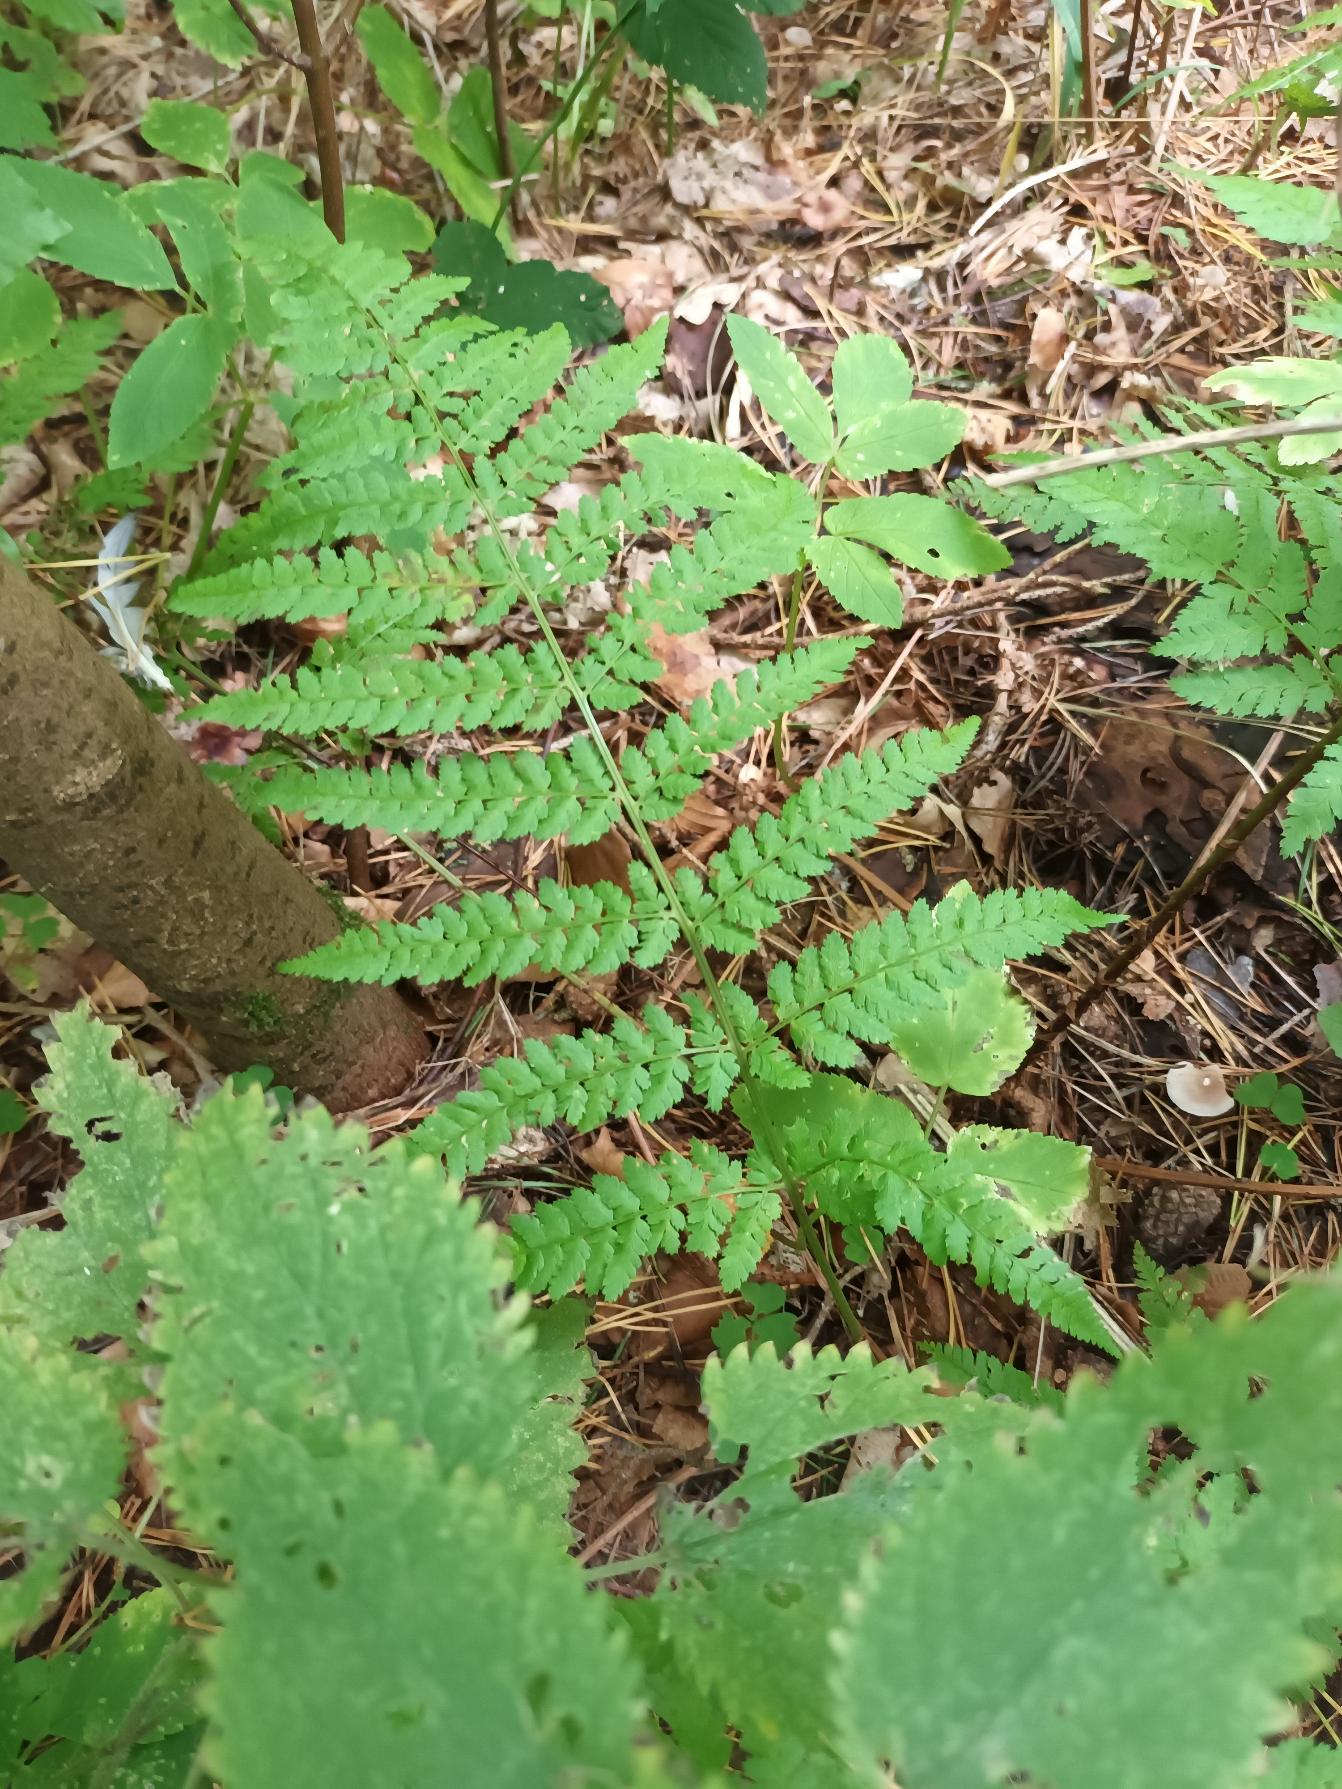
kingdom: Plantae
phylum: Tracheophyta
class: Polypodiopsida
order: Polypodiales
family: Athyriaceae
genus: Athyrium
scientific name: Athyrium filix-femina
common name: Fjerbregne
